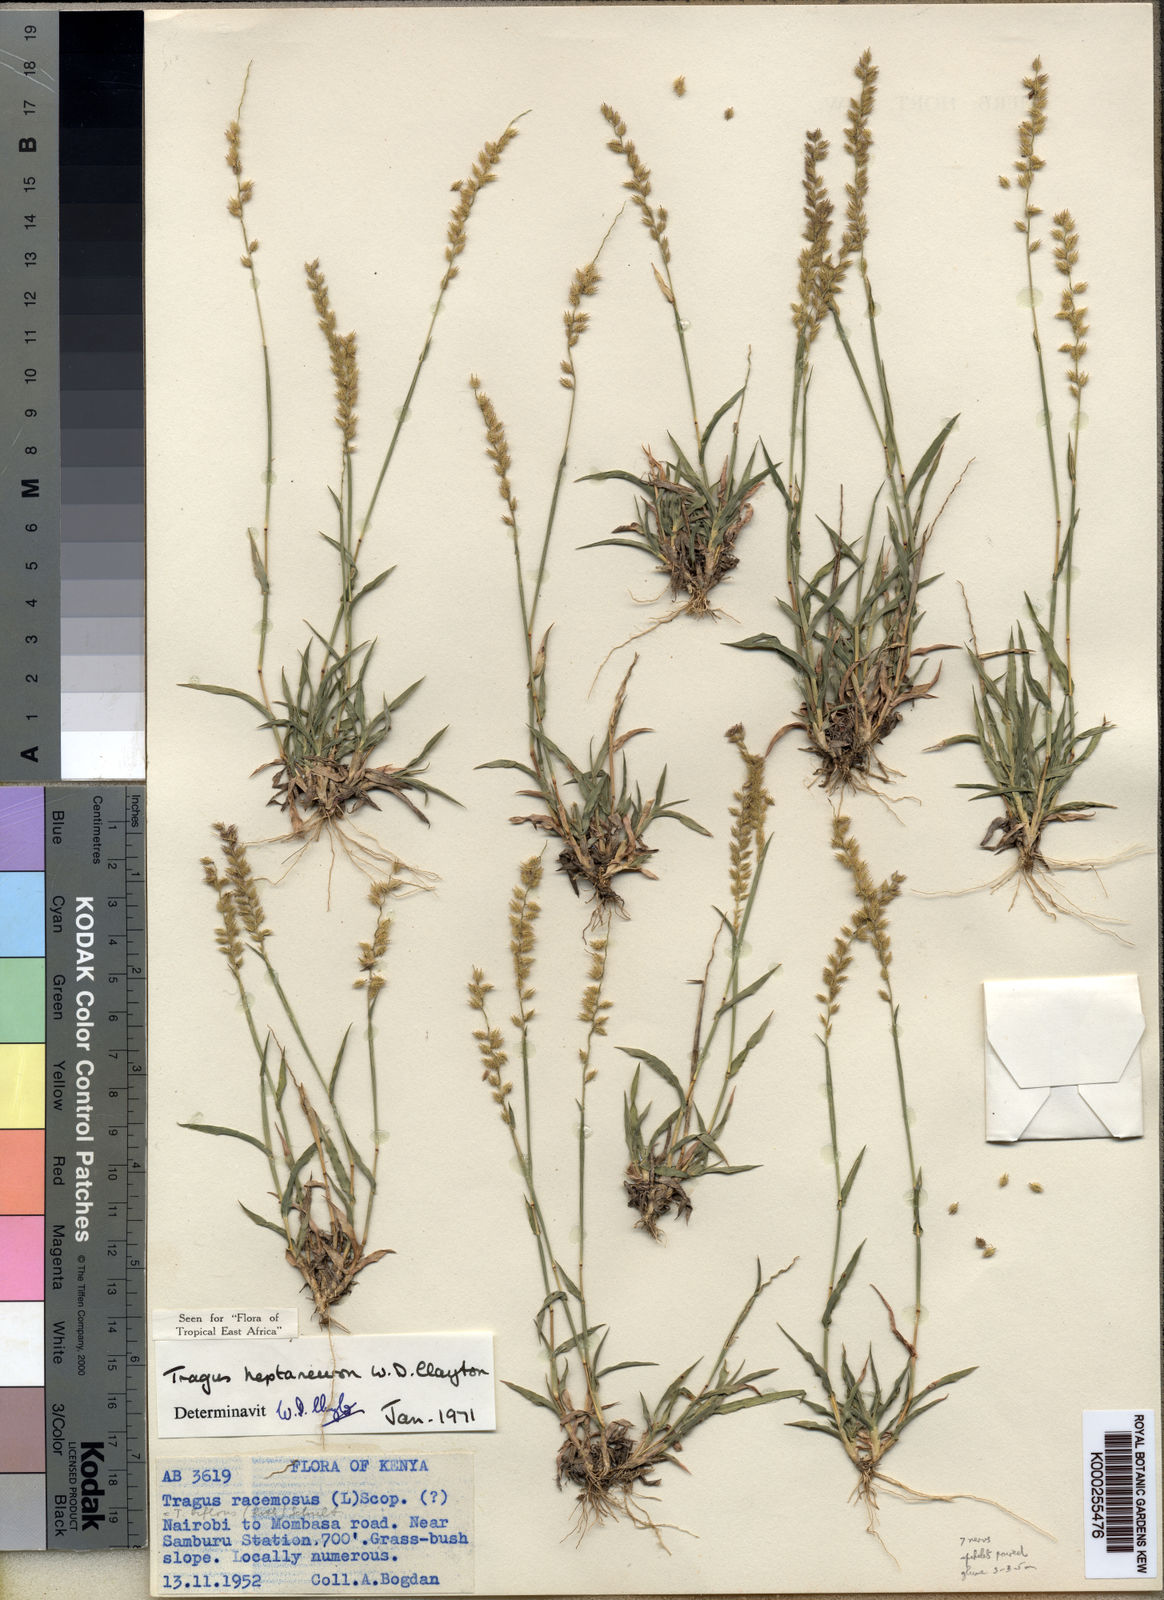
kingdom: Plantae
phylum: Tracheophyta
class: Liliopsida
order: Poales
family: Poaceae
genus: Tragus
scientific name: Tragus heptaneuron
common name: Kenya bur grass
